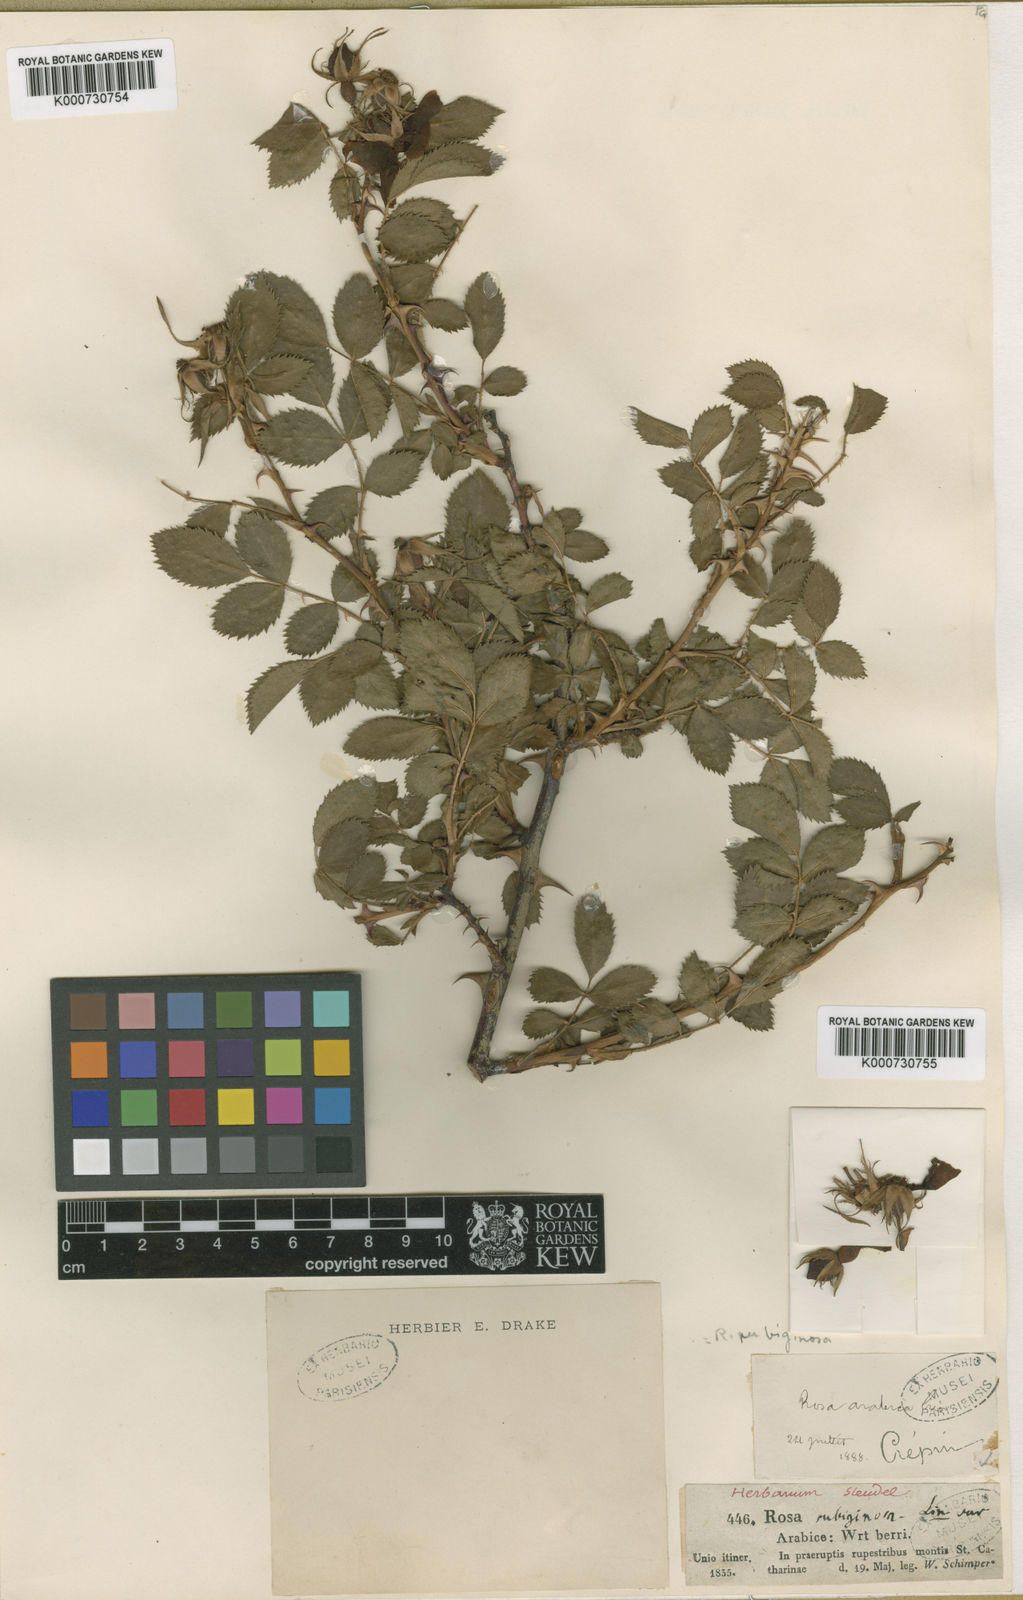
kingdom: Plantae
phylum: Tracheophyta
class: Magnoliopsida
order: Rosales
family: Rosaceae
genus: Rosa
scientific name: Rosa
